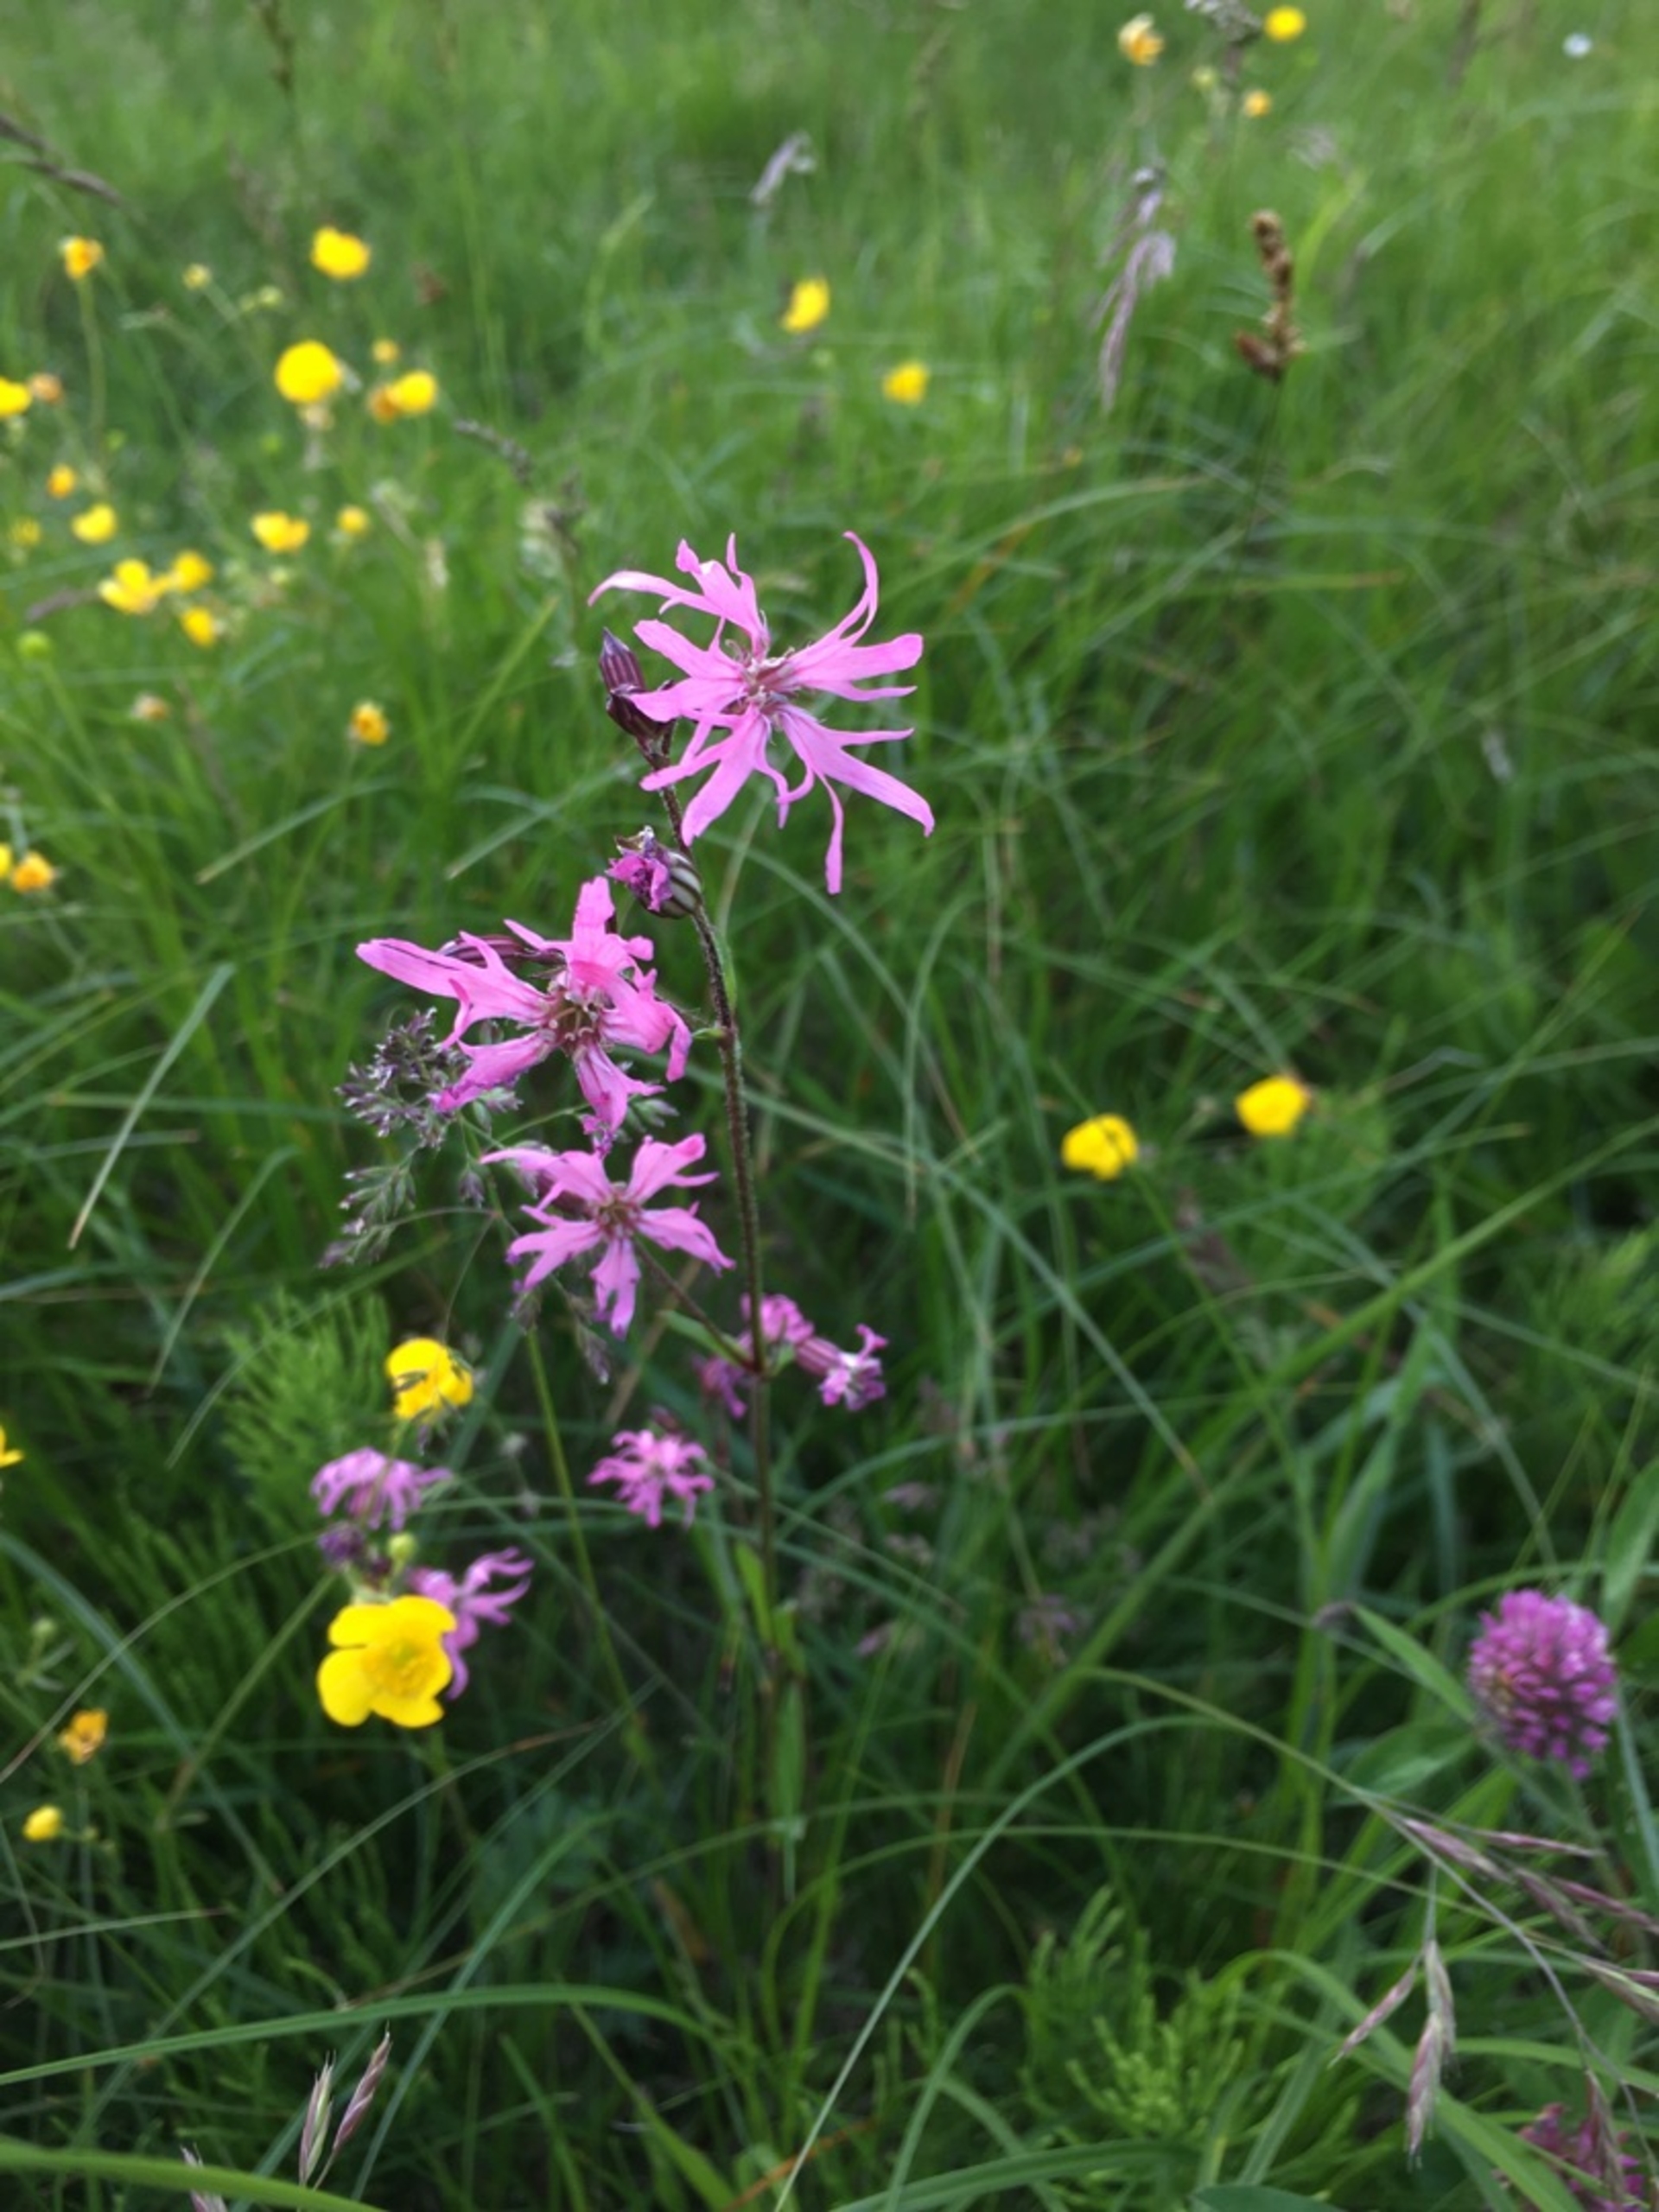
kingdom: Plantae
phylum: Tracheophyta
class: Magnoliopsida
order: Caryophyllales
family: Caryophyllaceae
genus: Silene
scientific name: Silene flos-cuculi
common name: Trævlekrone
